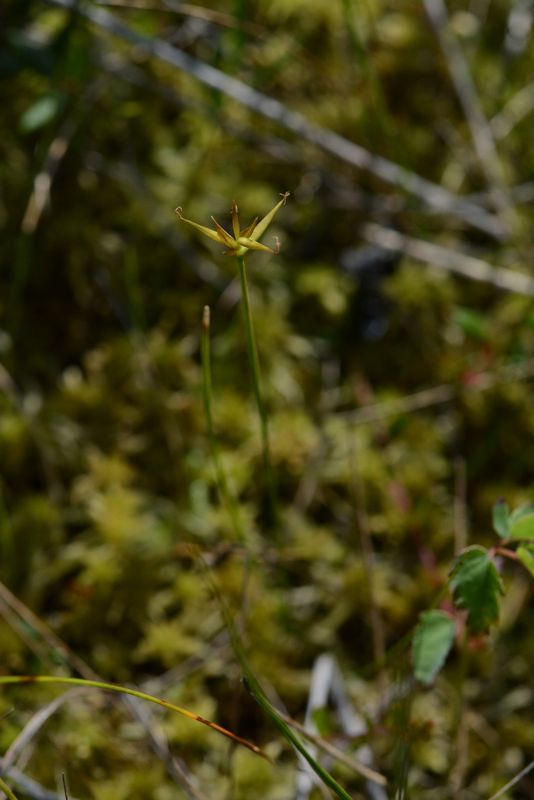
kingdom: Plantae
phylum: Tracheophyta
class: Liliopsida
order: Poales
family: Cyperaceae
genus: Carex
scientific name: Carex pauciflora
